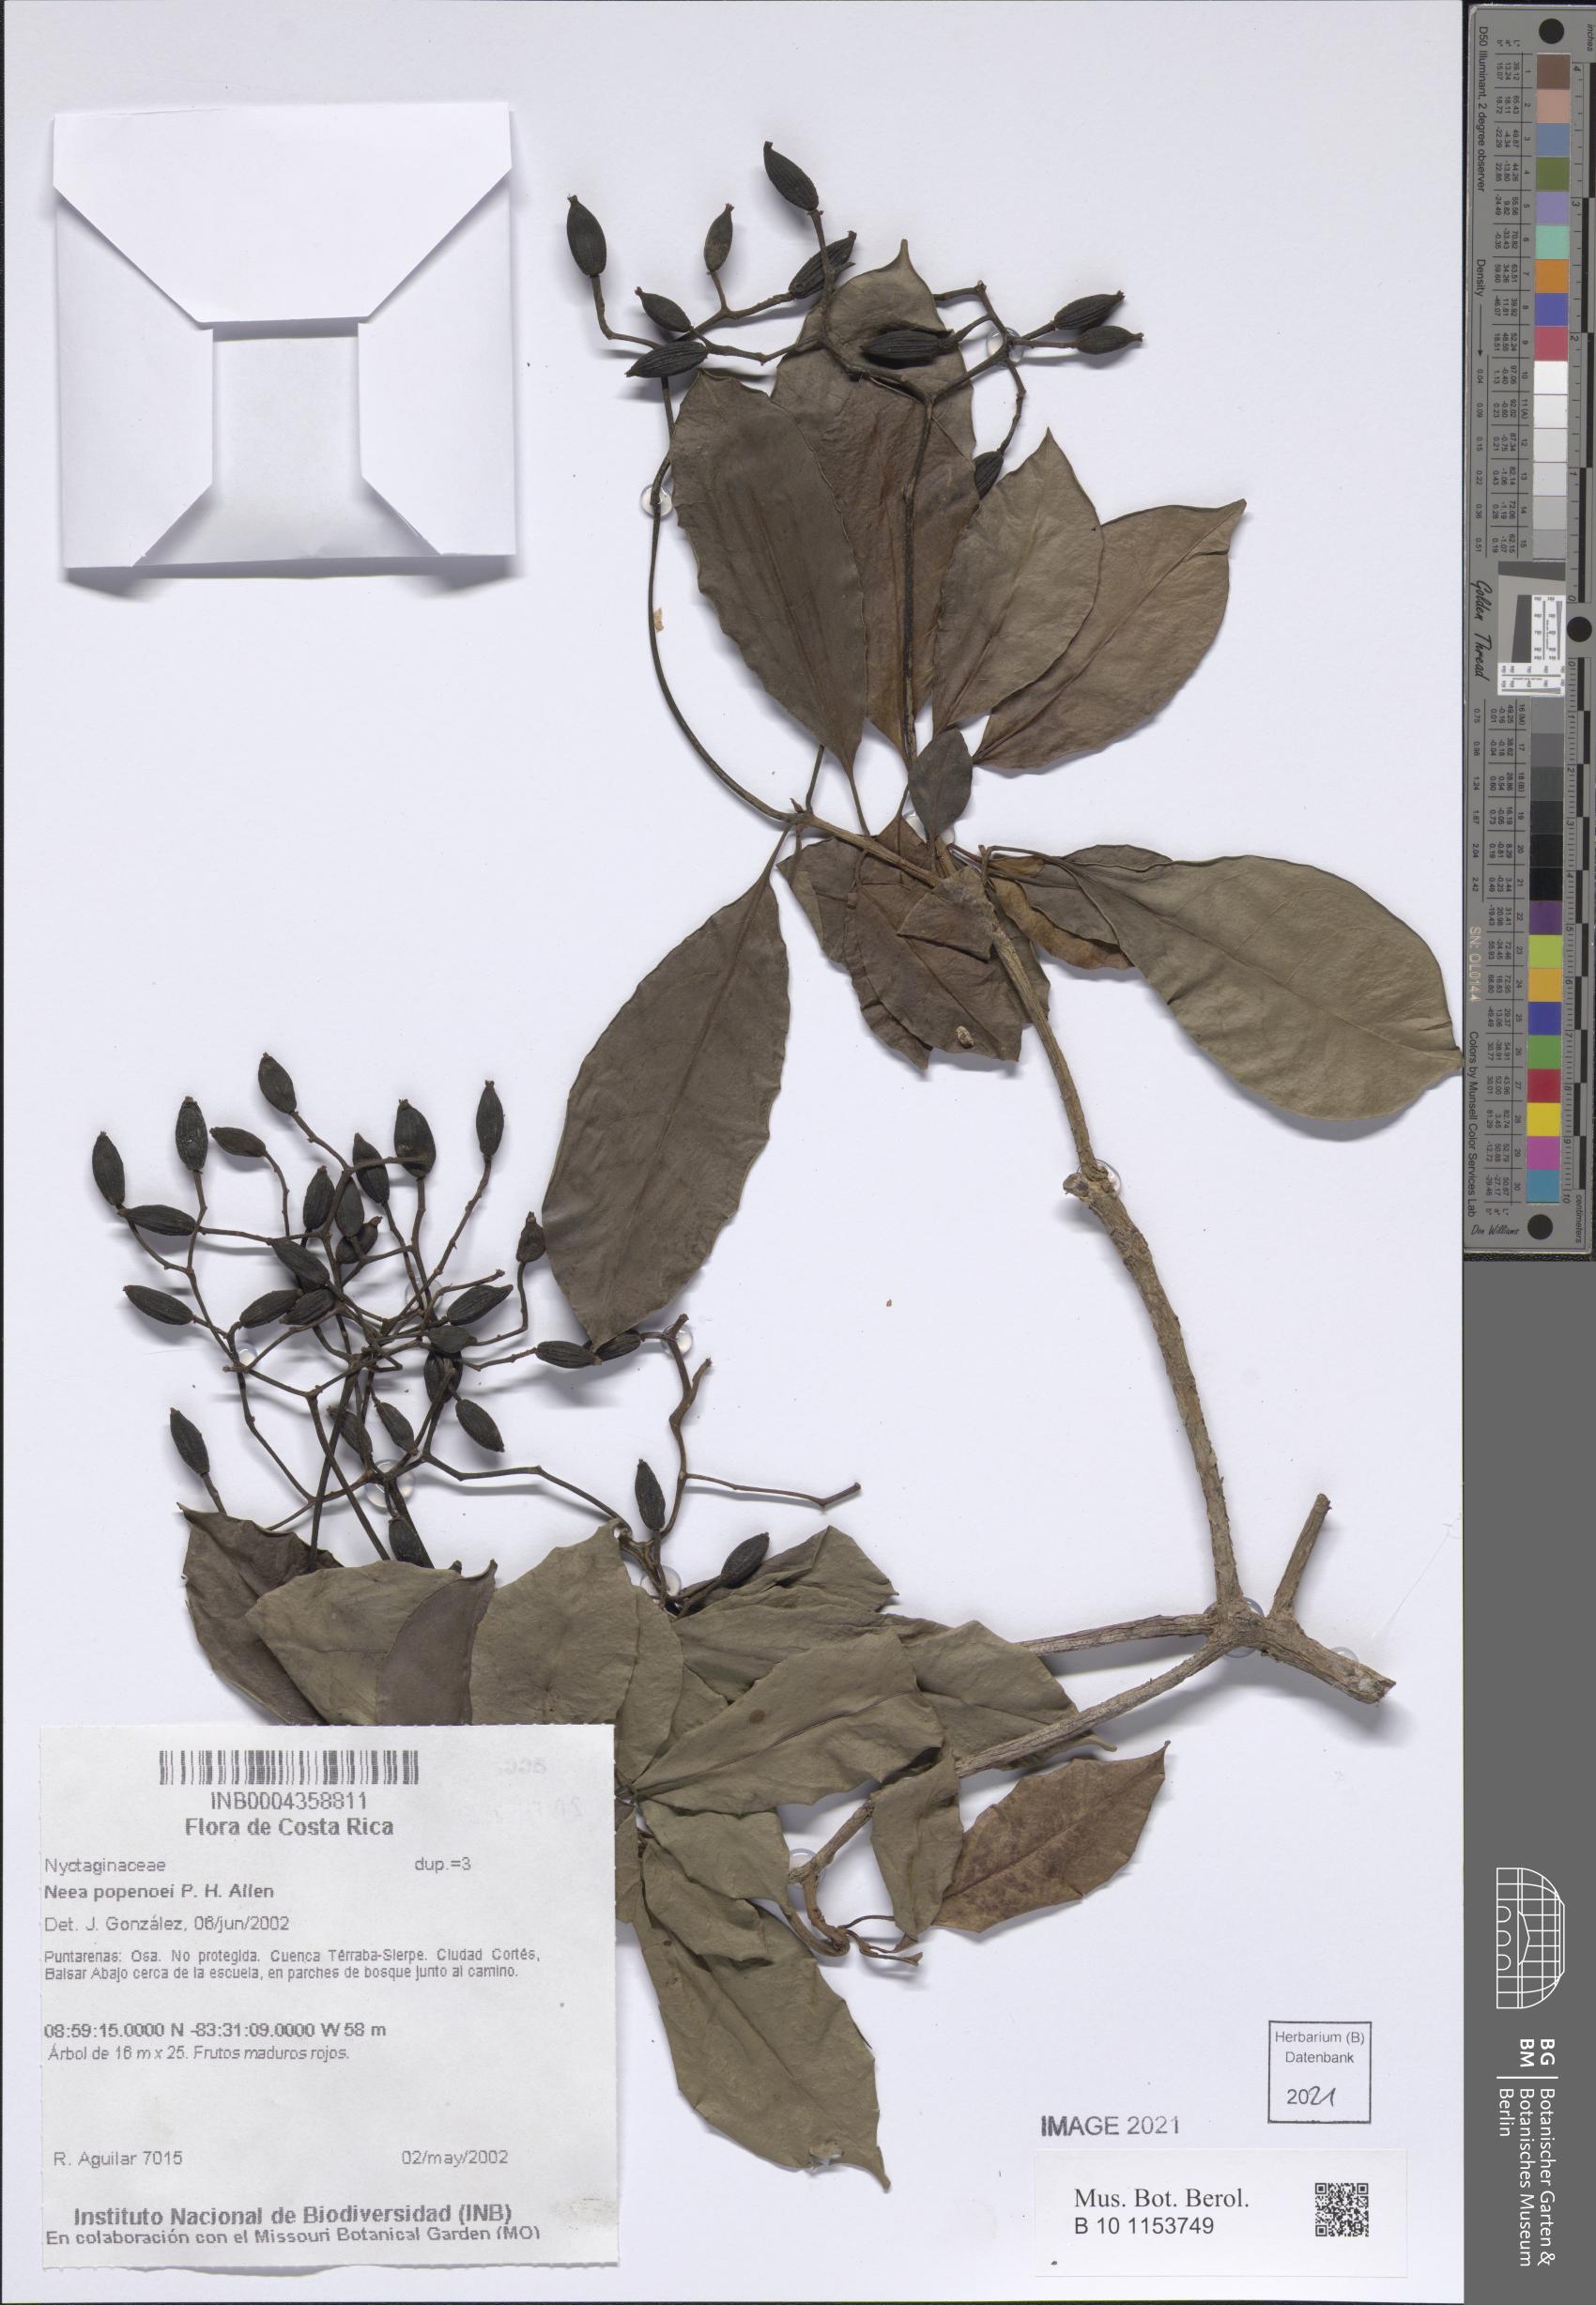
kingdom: Plantae
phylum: Tracheophyta
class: Magnoliopsida
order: Caryophyllales
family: Nyctaginaceae
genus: Neea
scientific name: Neea psychotrioides
